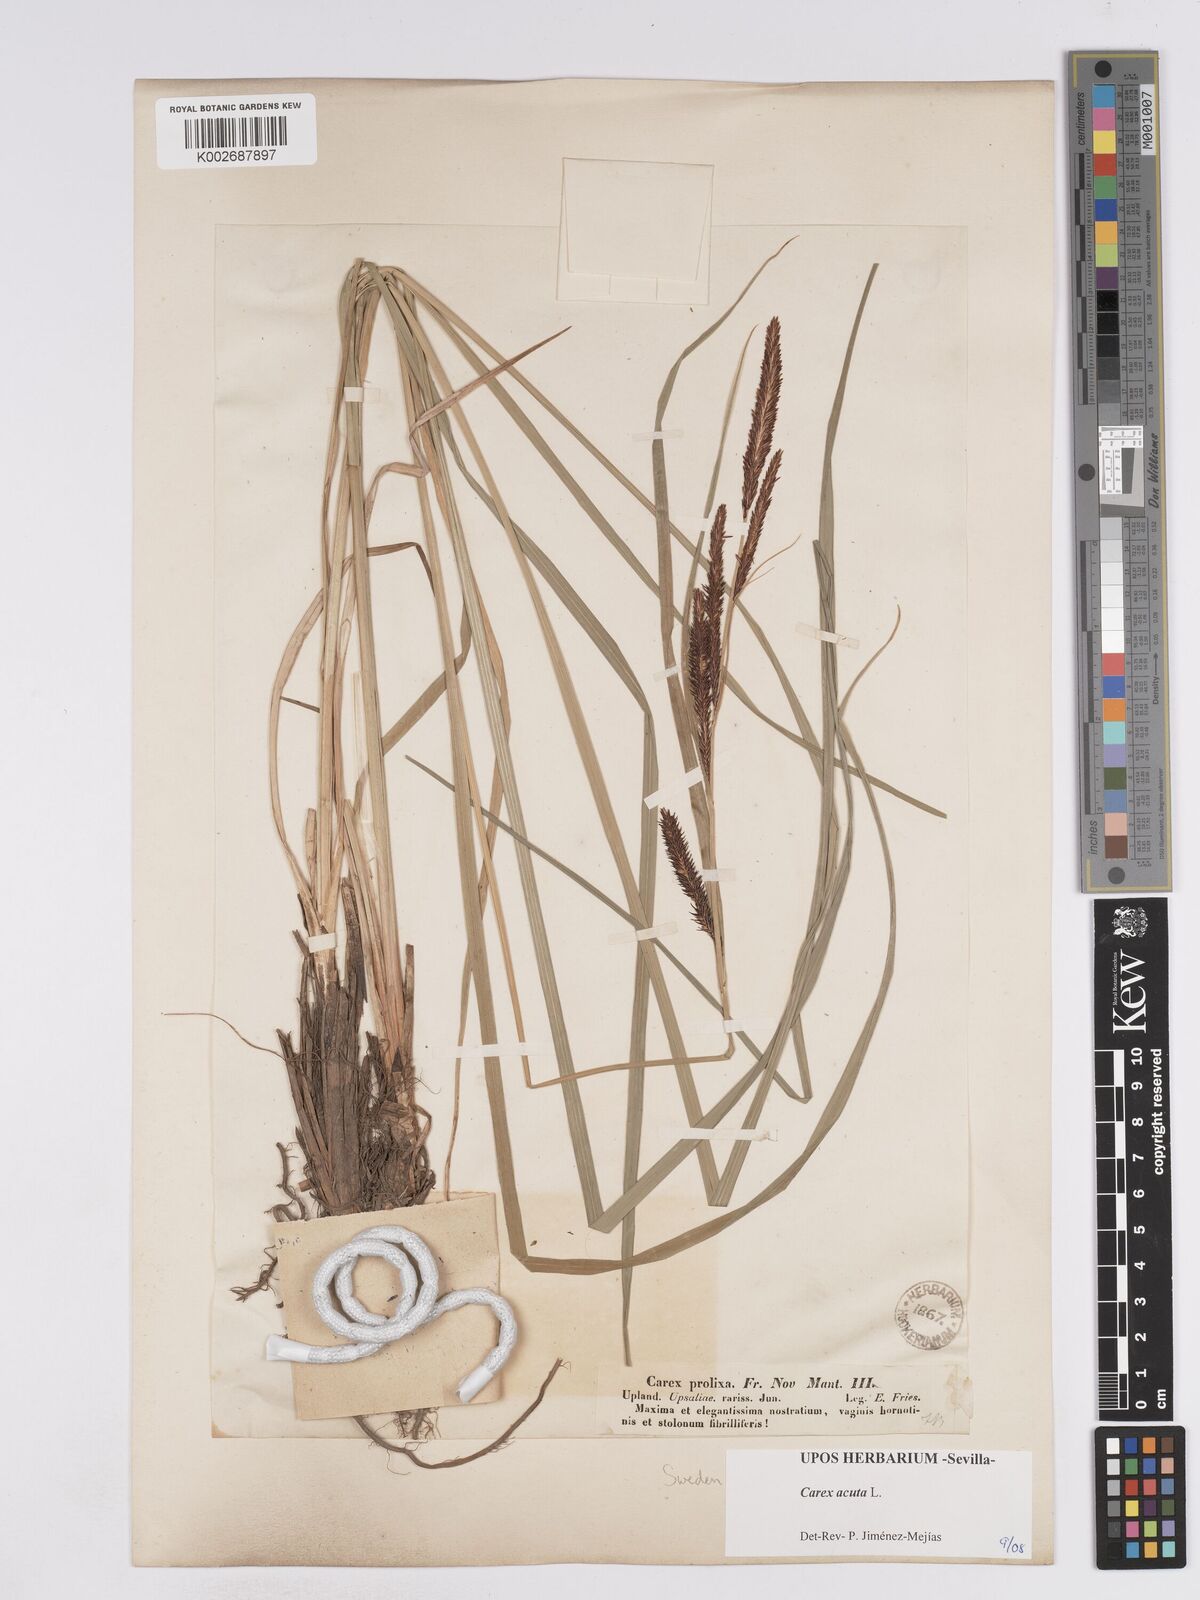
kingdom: Plantae
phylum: Tracheophyta
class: Liliopsida
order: Poales
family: Cyperaceae
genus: Carex
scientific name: Carex acuta
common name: Slender tufted-sedge
